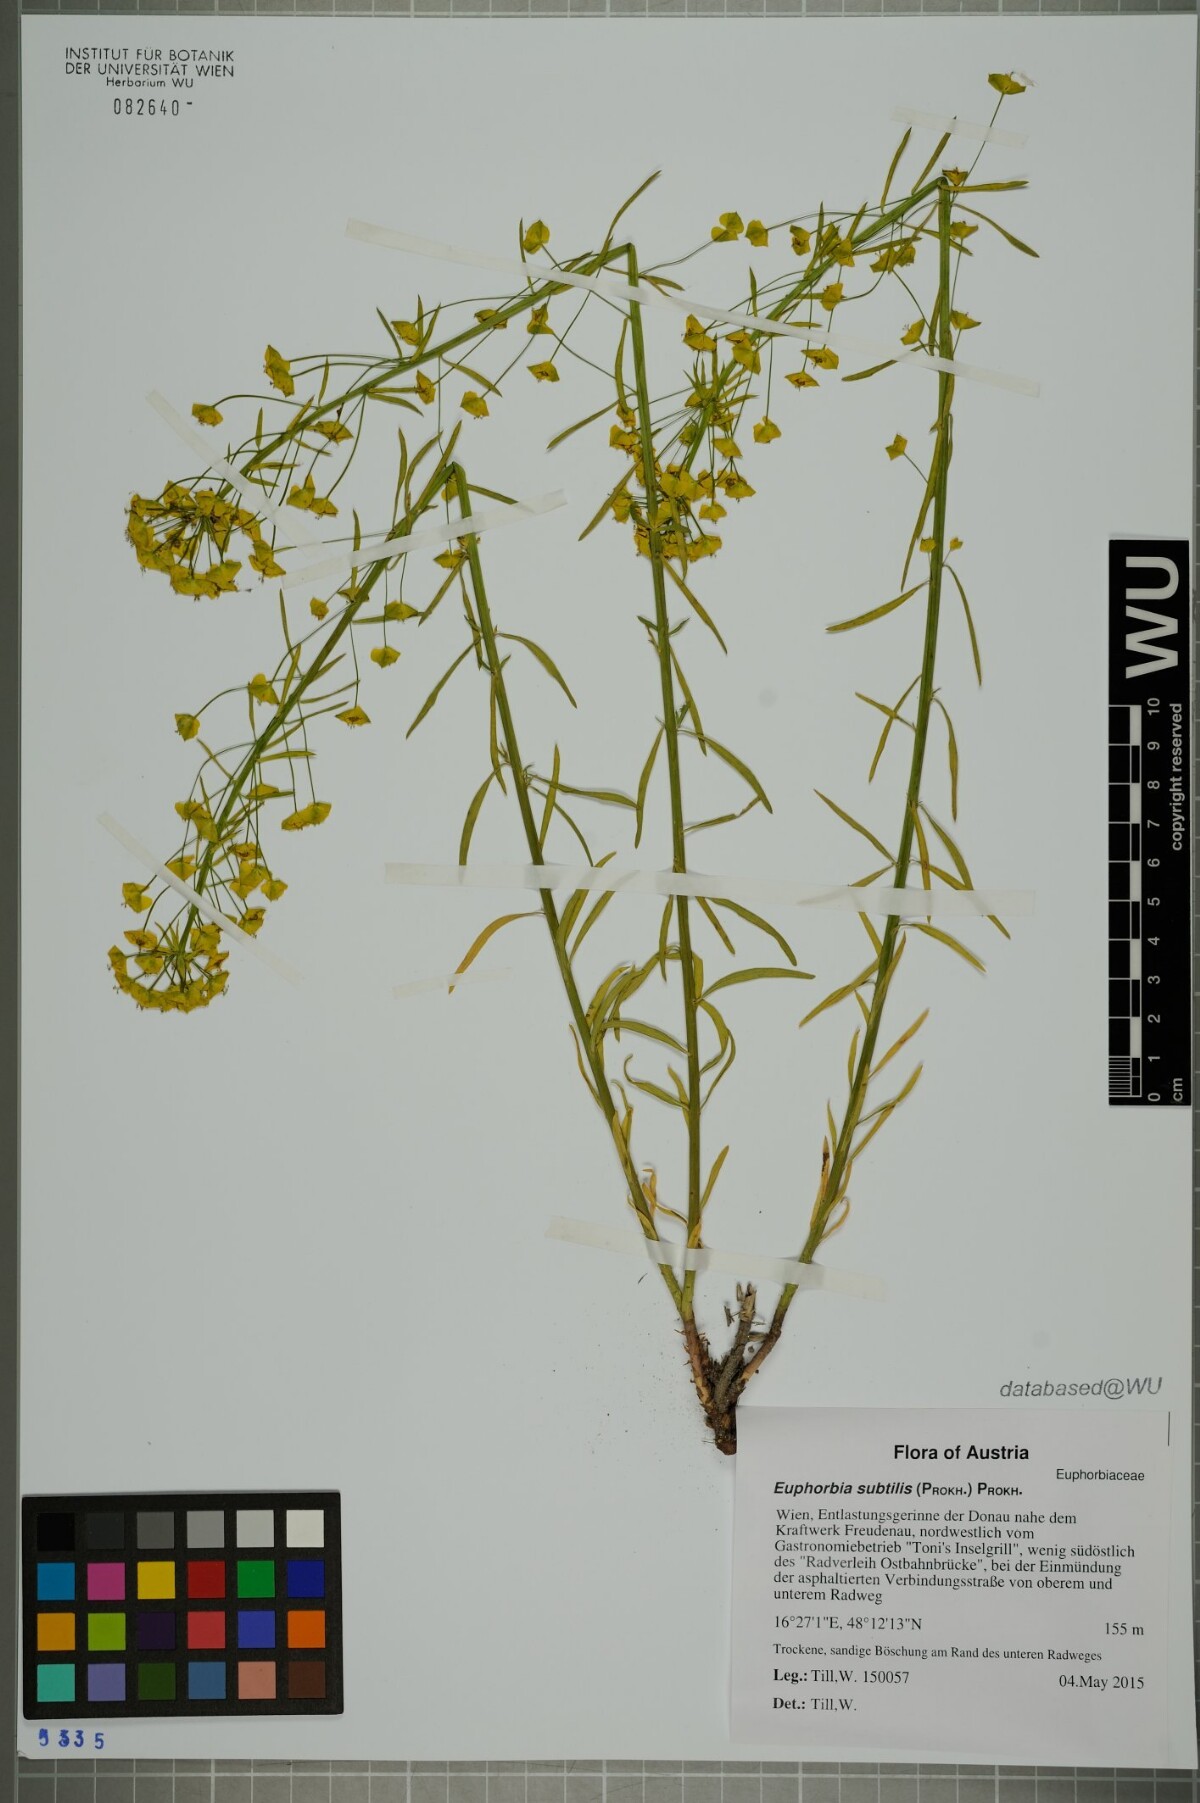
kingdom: Plantae
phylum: Tracheophyta
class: Magnoliopsida
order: Malpighiales
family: Euphorbiaceae
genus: Euphorbia
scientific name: Euphorbia esula
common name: Leafy spurge
